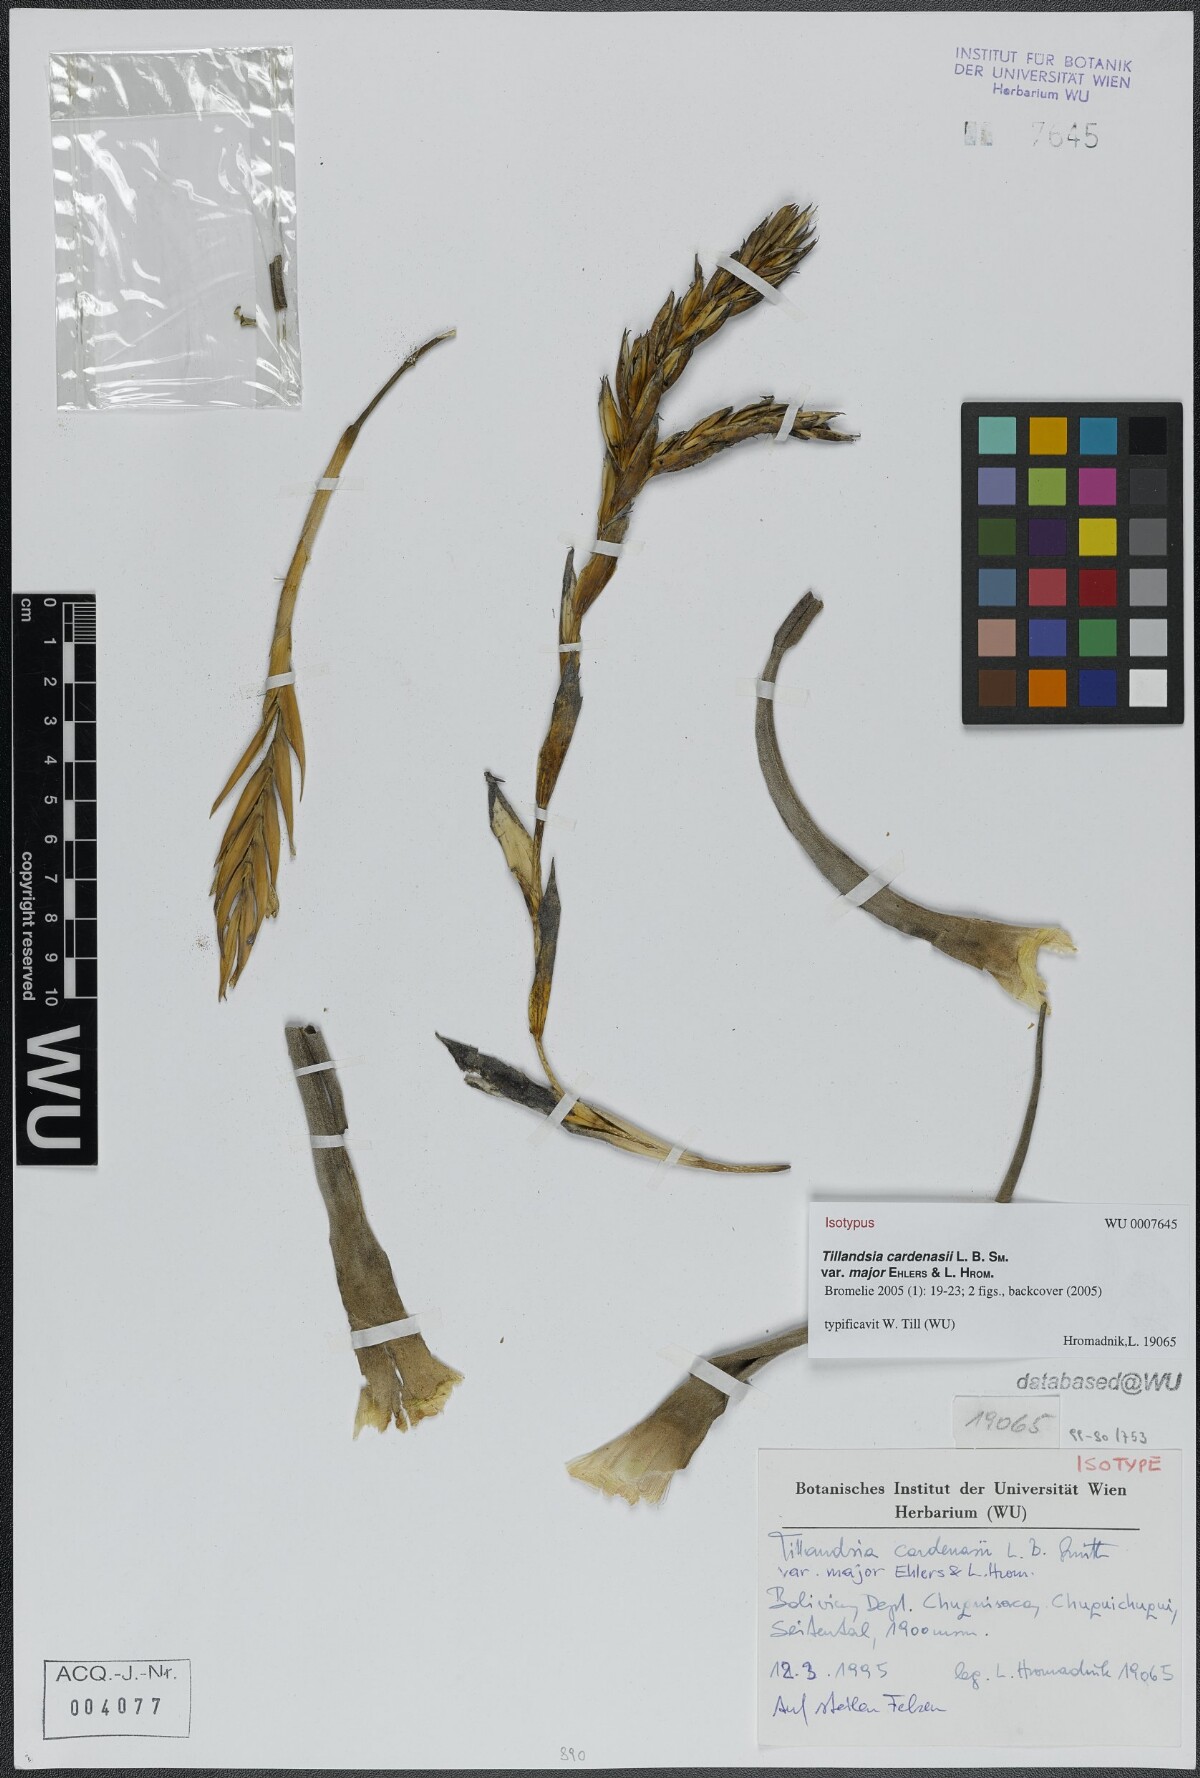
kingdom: Plantae
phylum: Tracheophyta
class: Liliopsida
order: Poales
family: Bromeliaceae
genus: Tillandsia
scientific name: Tillandsia cardenasii
